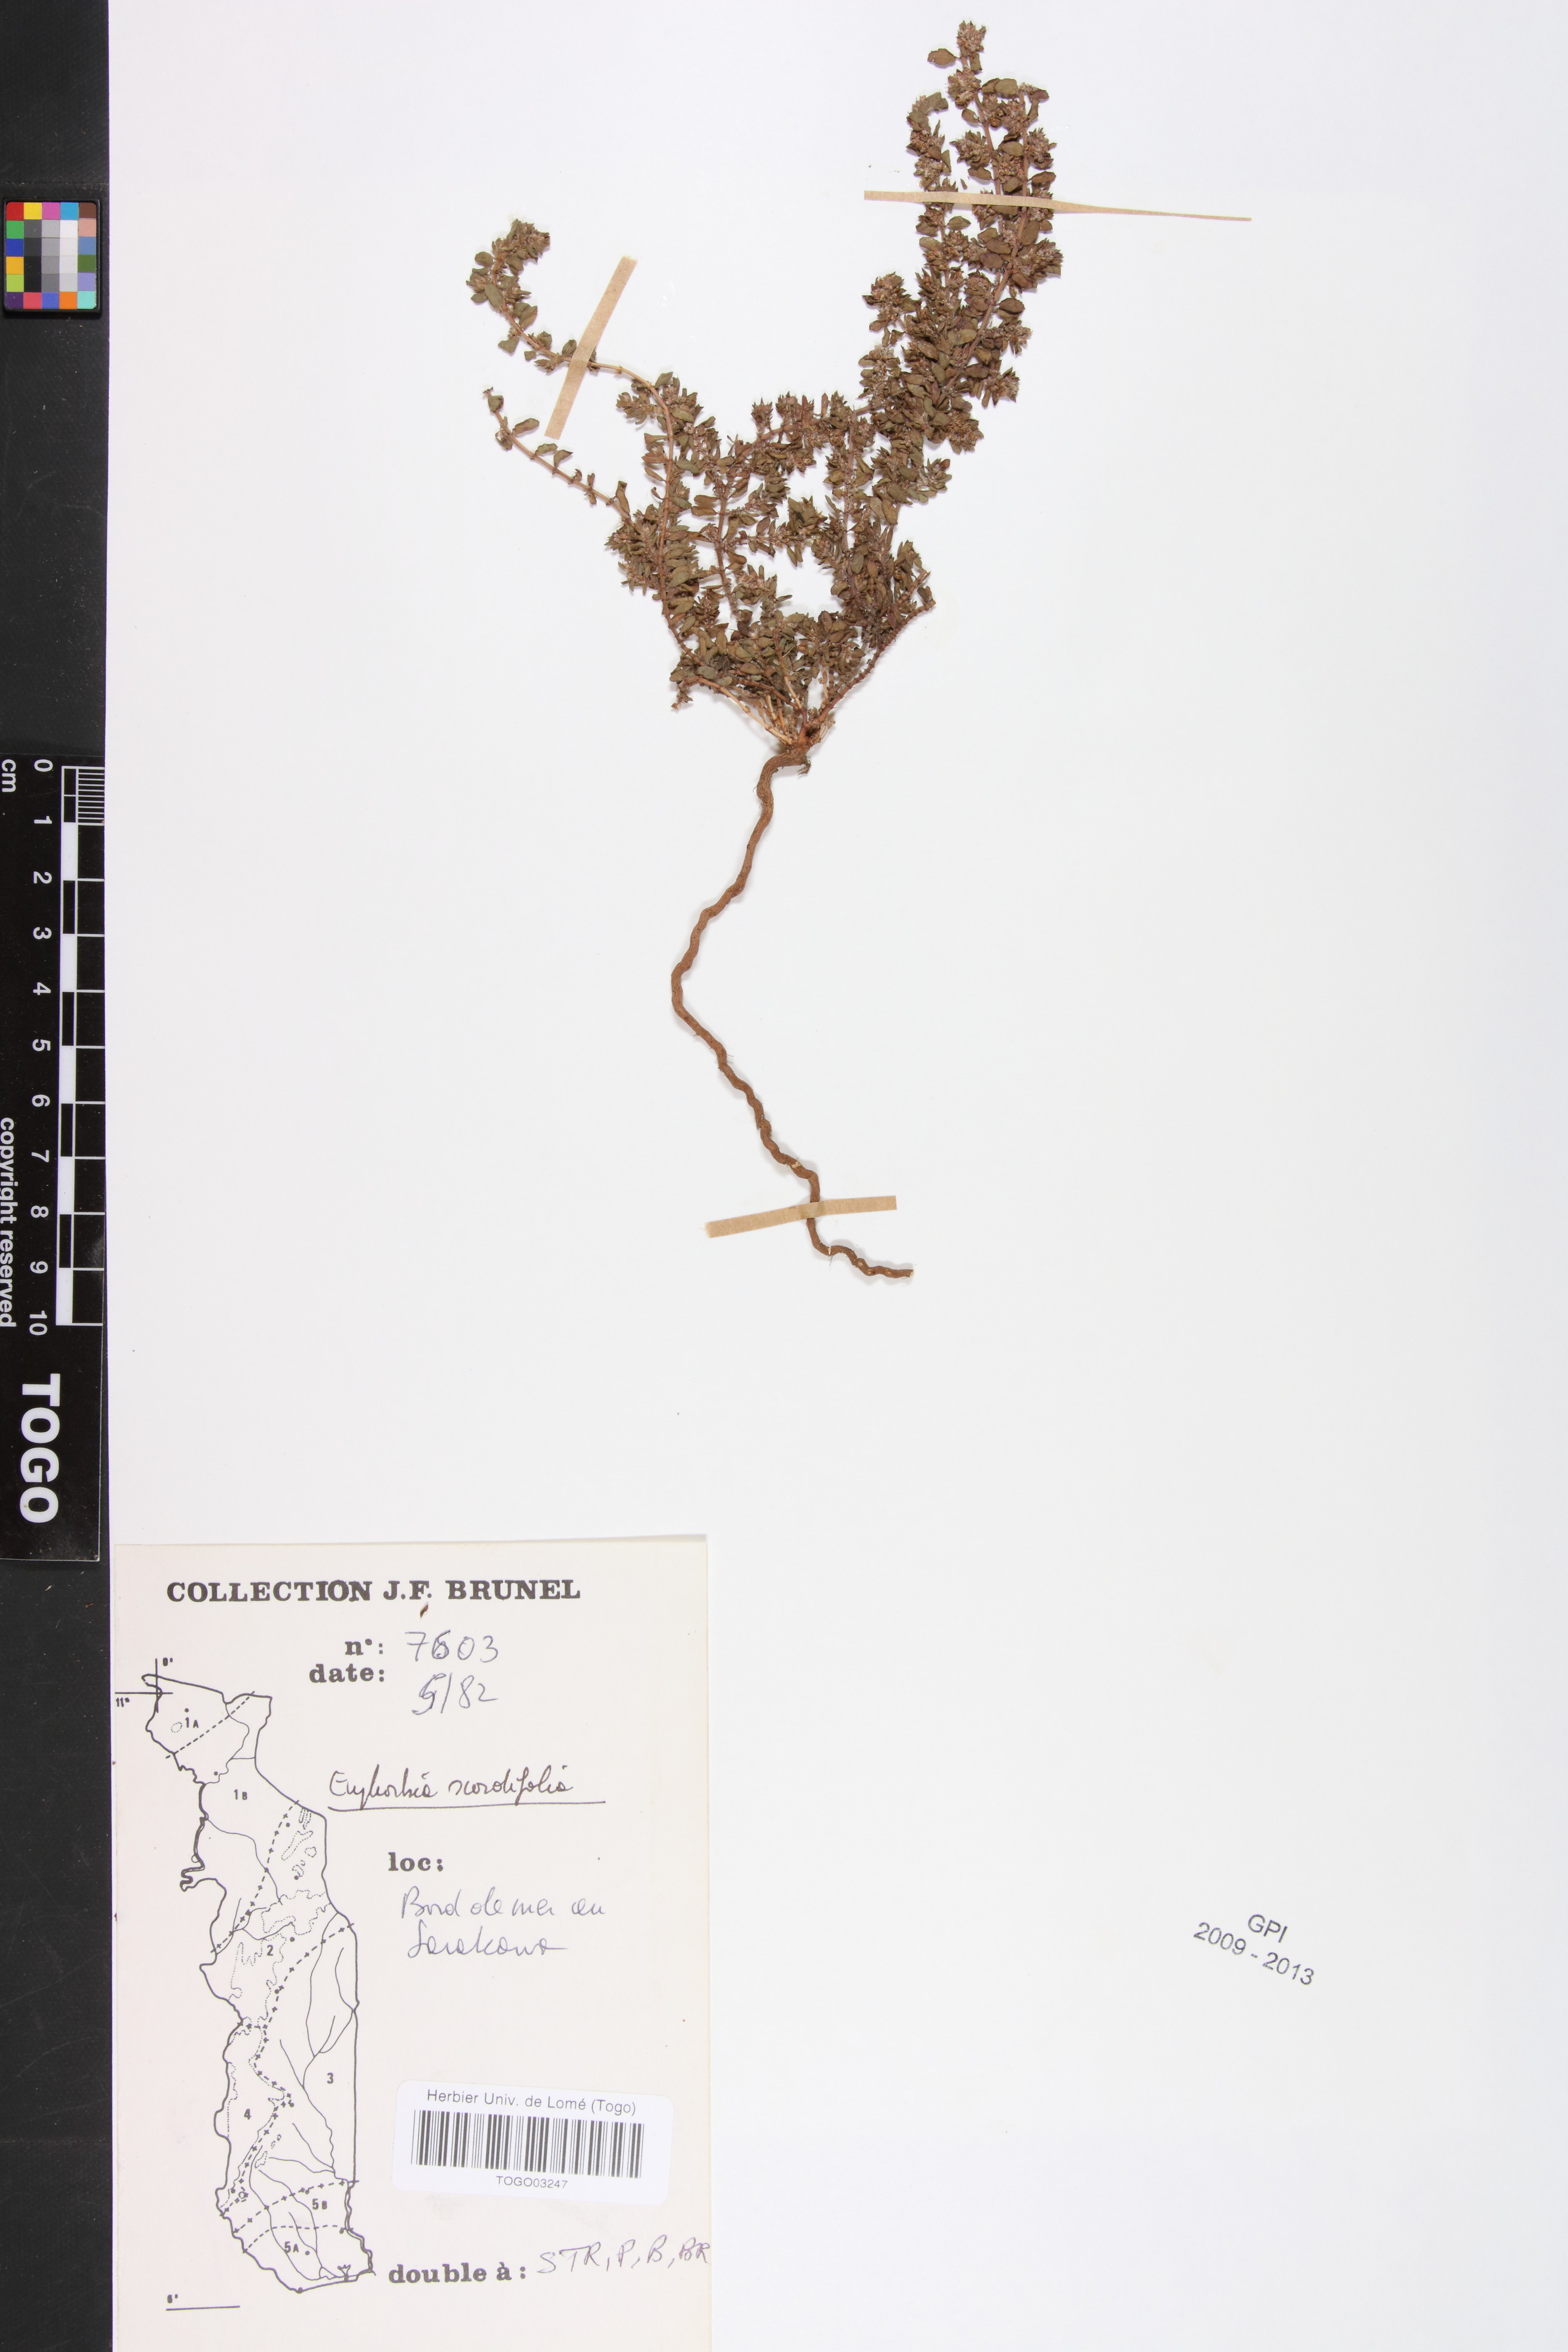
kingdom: Plantae
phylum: Tracheophyta
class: Magnoliopsida
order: Malpighiales
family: Euphorbiaceae
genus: Euphorbia
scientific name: Euphorbia scordiifolia
